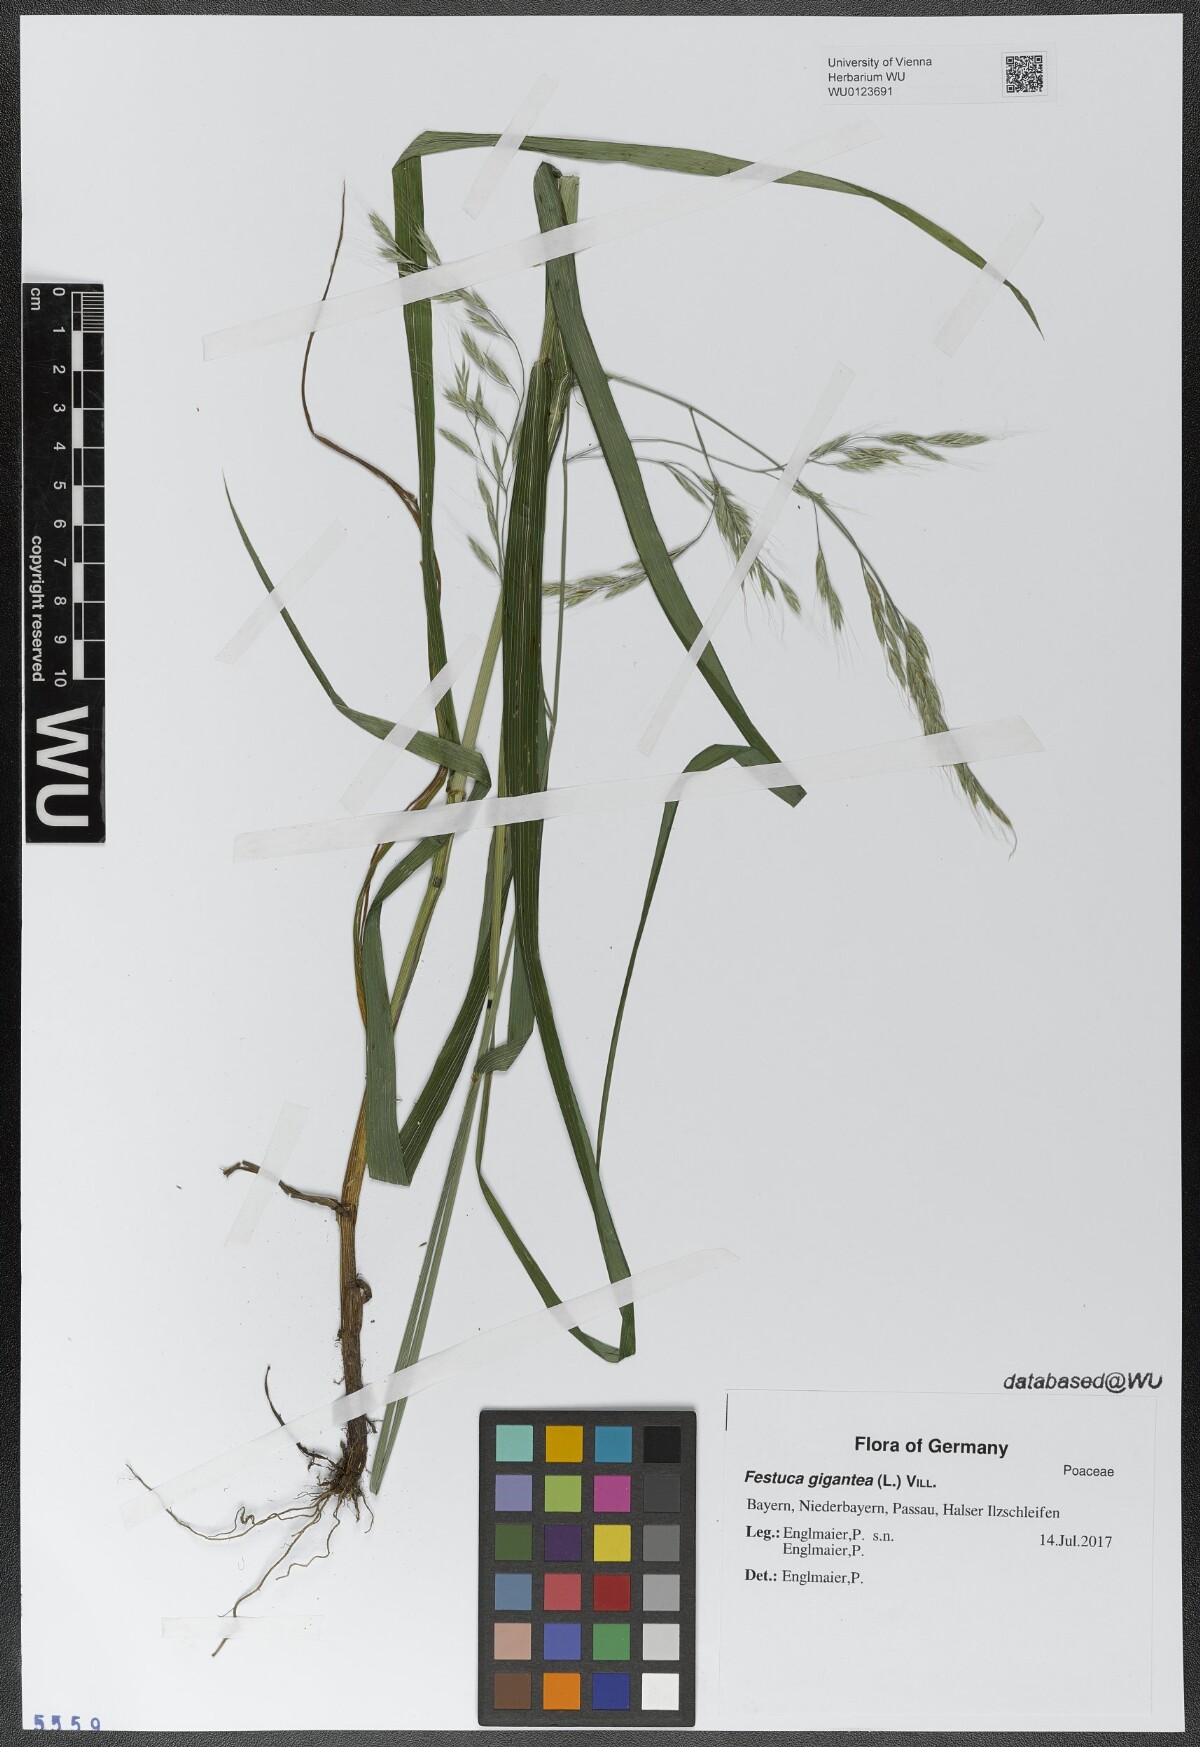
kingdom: Plantae
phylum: Tracheophyta
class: Liliopsida
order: Poales
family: Poaceae
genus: Lolium
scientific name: Lolium giganteum
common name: Giant fescue
